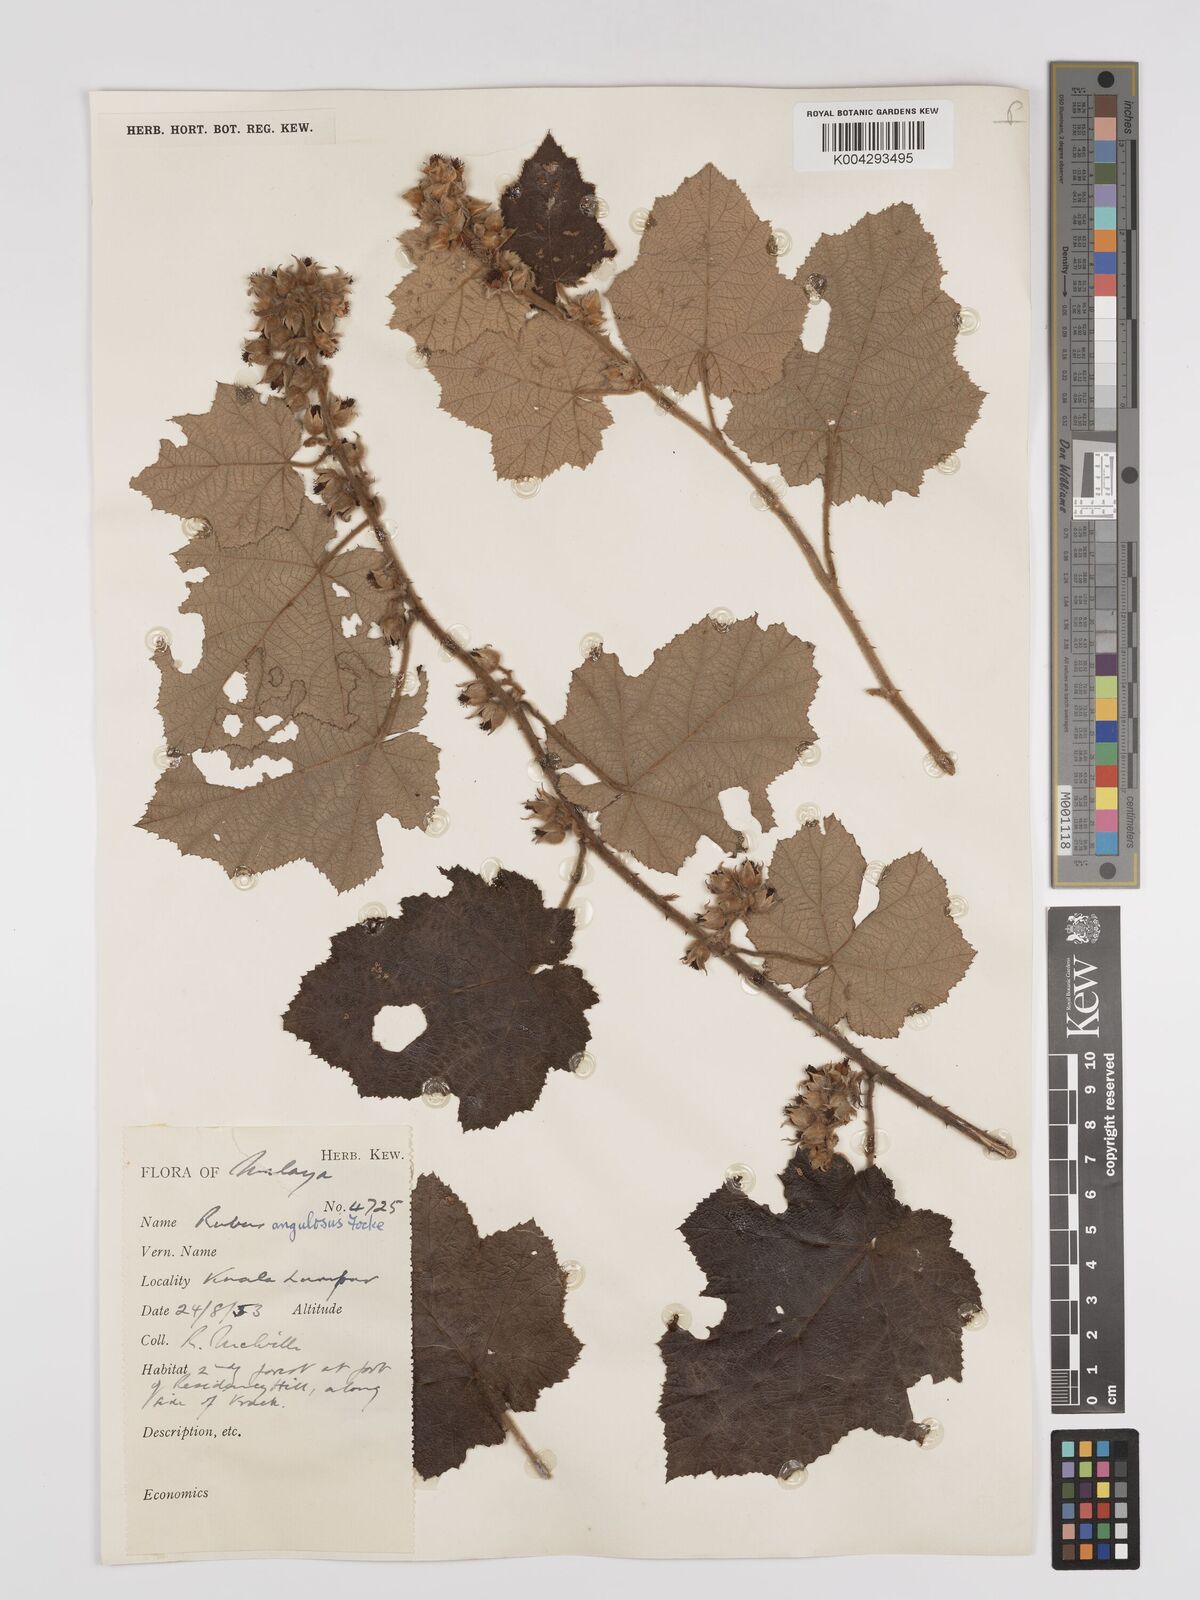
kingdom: Plantae
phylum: Tracheophyta
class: Magnoliopsida
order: Rosales
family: Rosaceae
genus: Rubus
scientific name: Rubus moluccanus
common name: Wild raspberry
